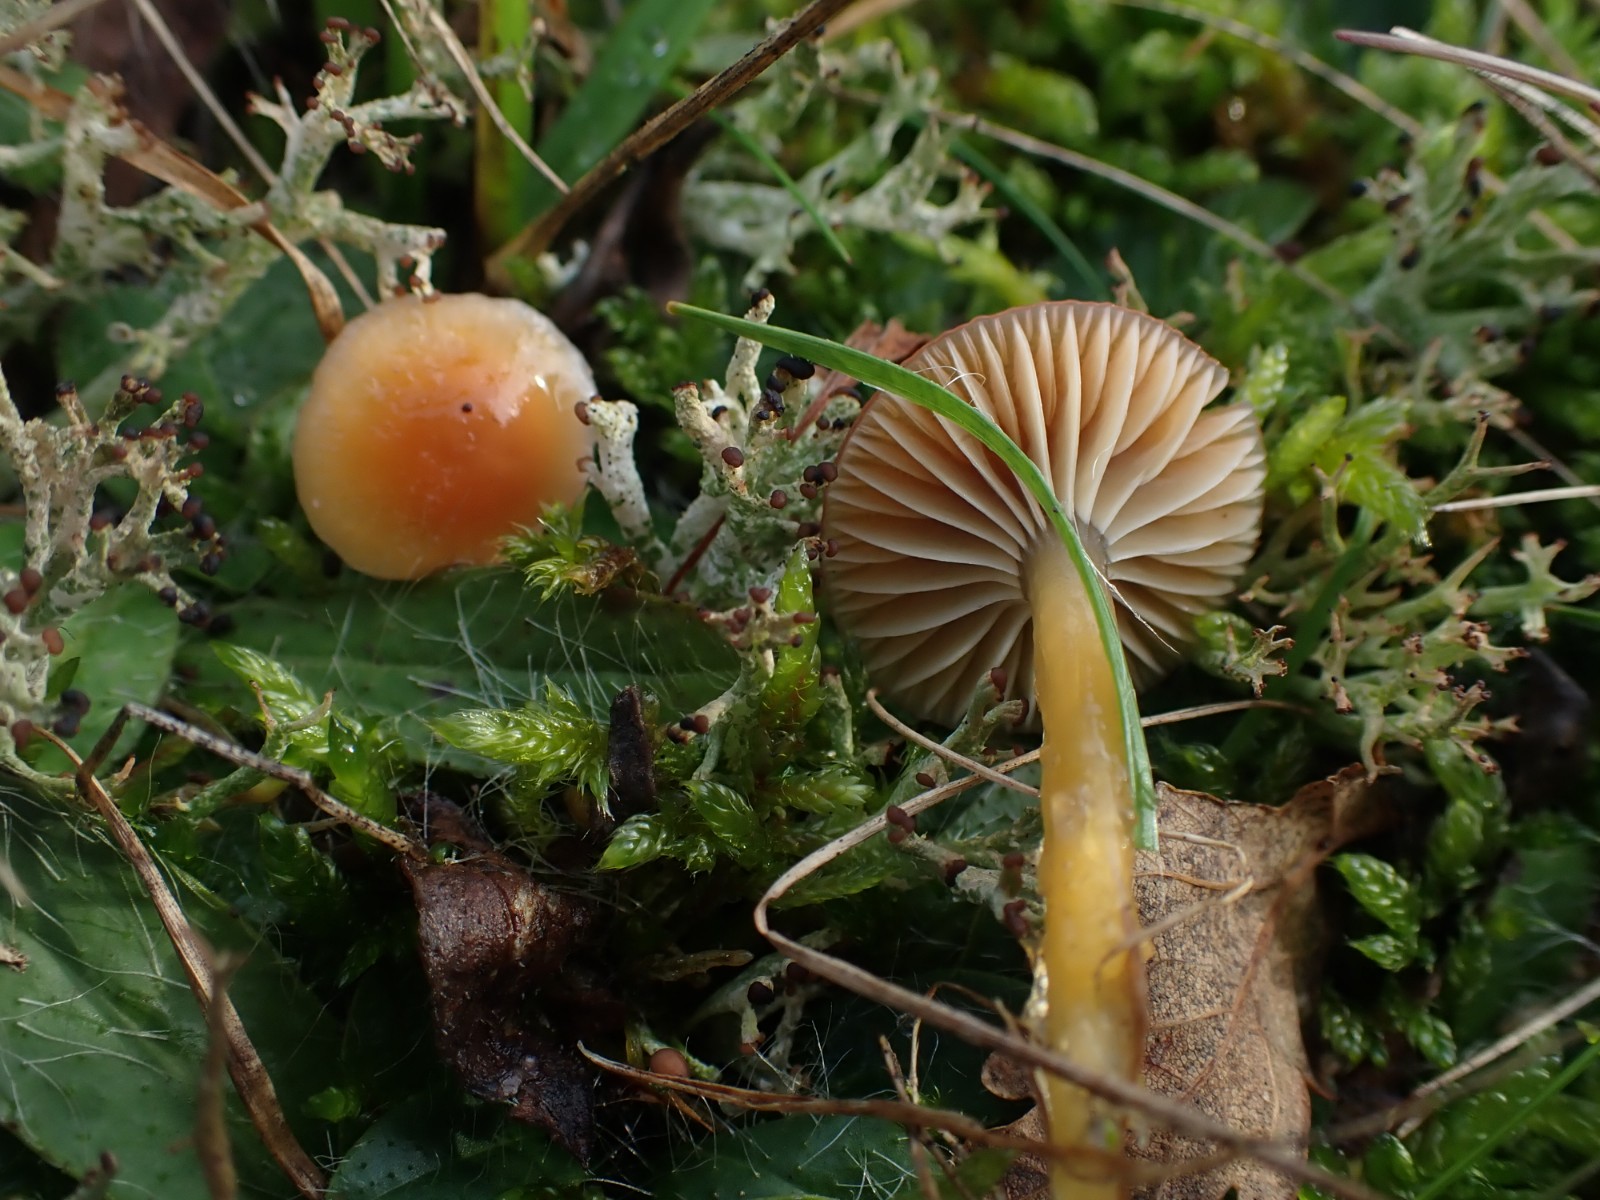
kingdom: Fungi
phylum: Basidiomycota
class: Agaricomycetes
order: Agaricales
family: Hygrophoraceae
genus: Gliophorus
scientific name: Gliophorus laetus
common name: brusk-vokshat
